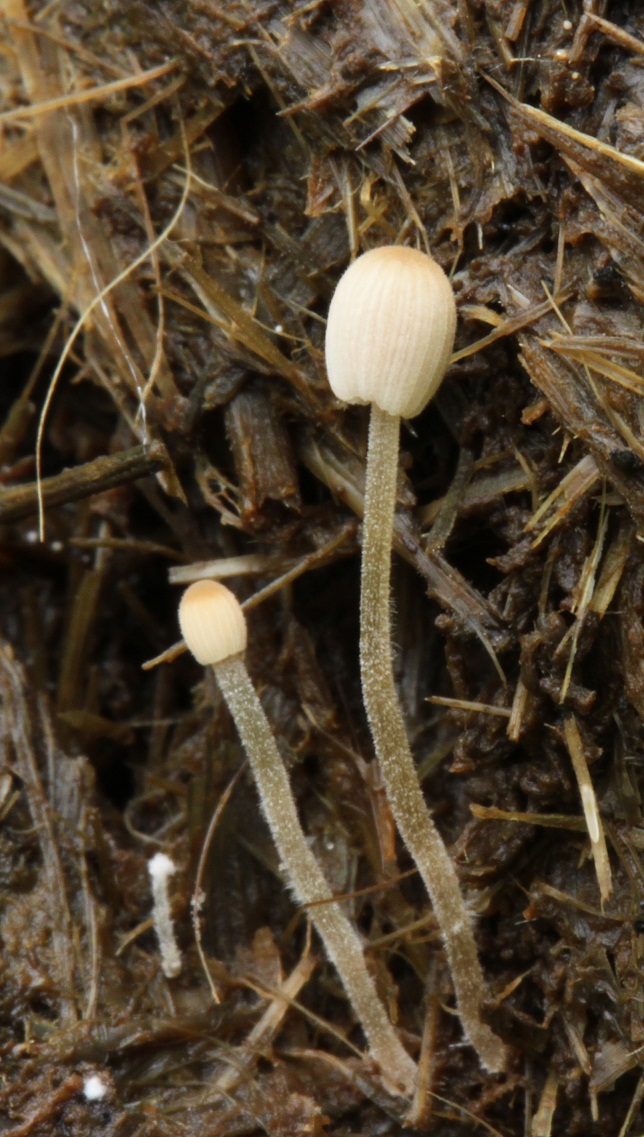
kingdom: Fungi
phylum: Basidiomycota
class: Agaricomycetes
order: Agaricales
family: Psathyrellaceae
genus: Tulosesus
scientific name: Tulosesus pellucidus
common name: skær blækhat
